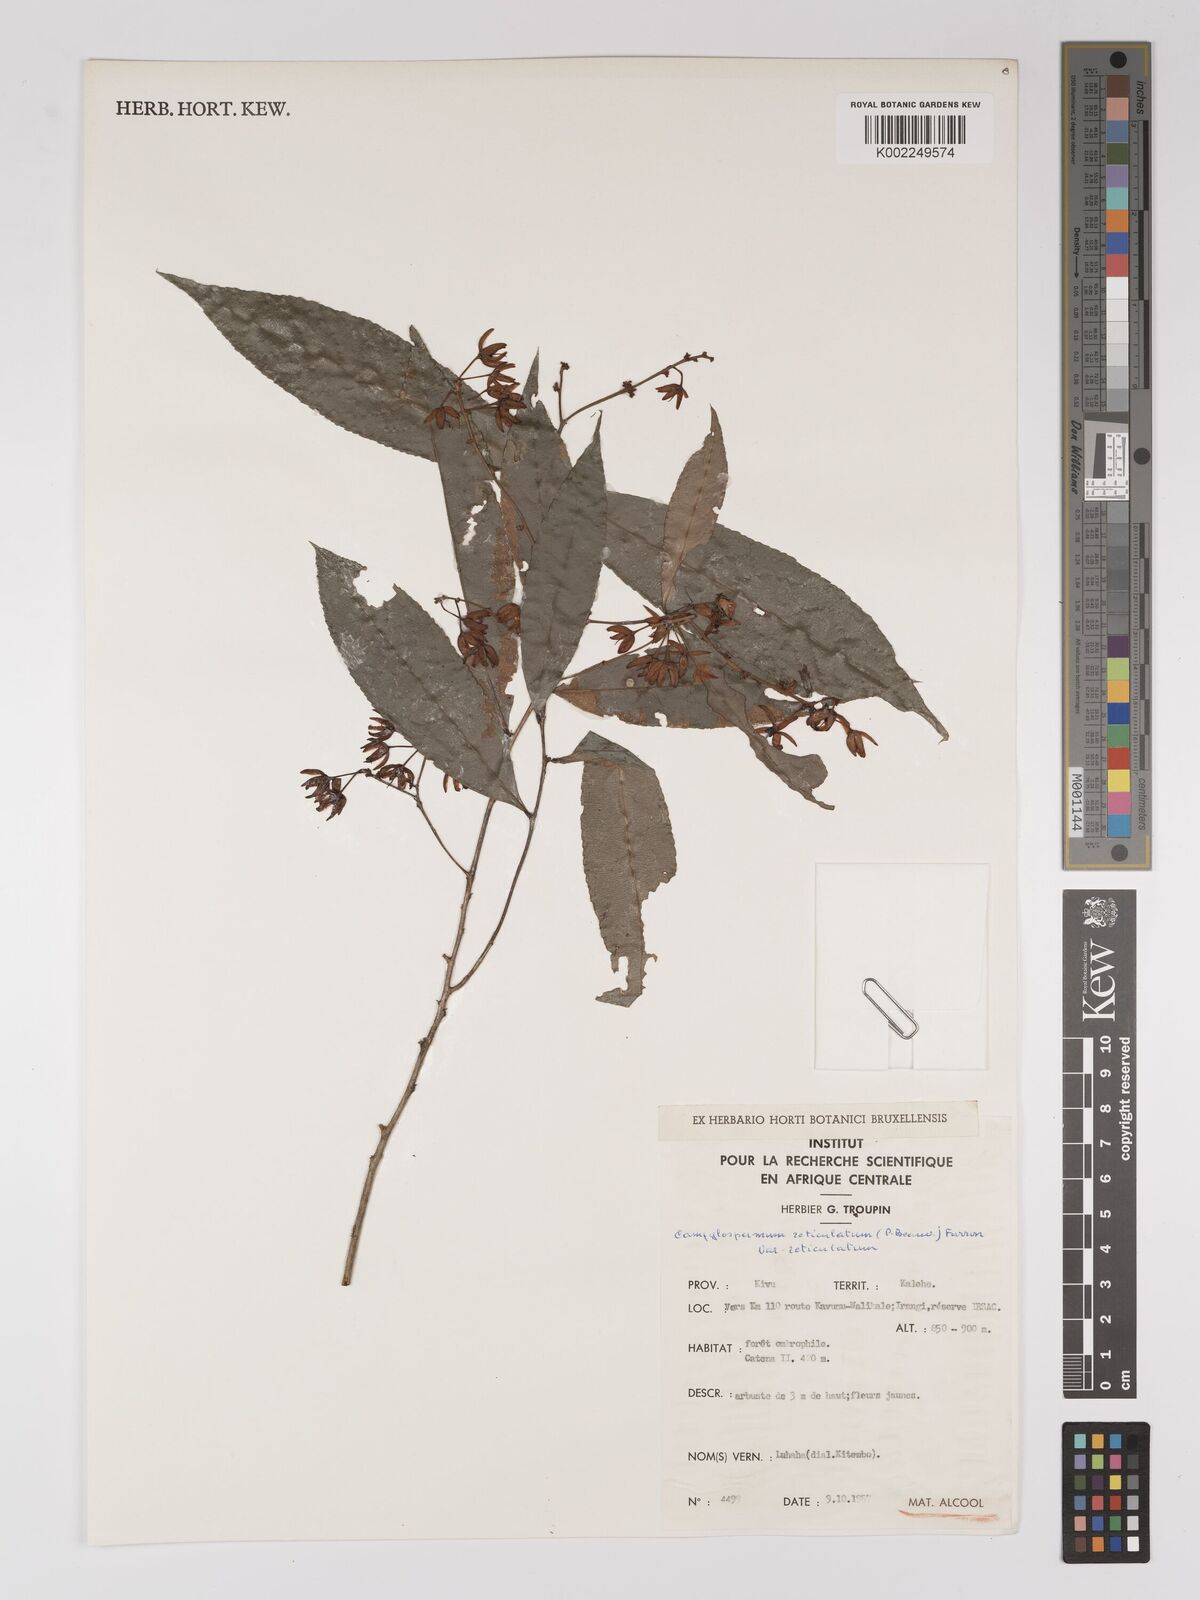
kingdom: Plantae
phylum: Tracheophyta
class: Magnoliopsida
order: Malpighiales
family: Ochnaceae
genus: Campylospermum
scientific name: Campylospermum reticulatum
